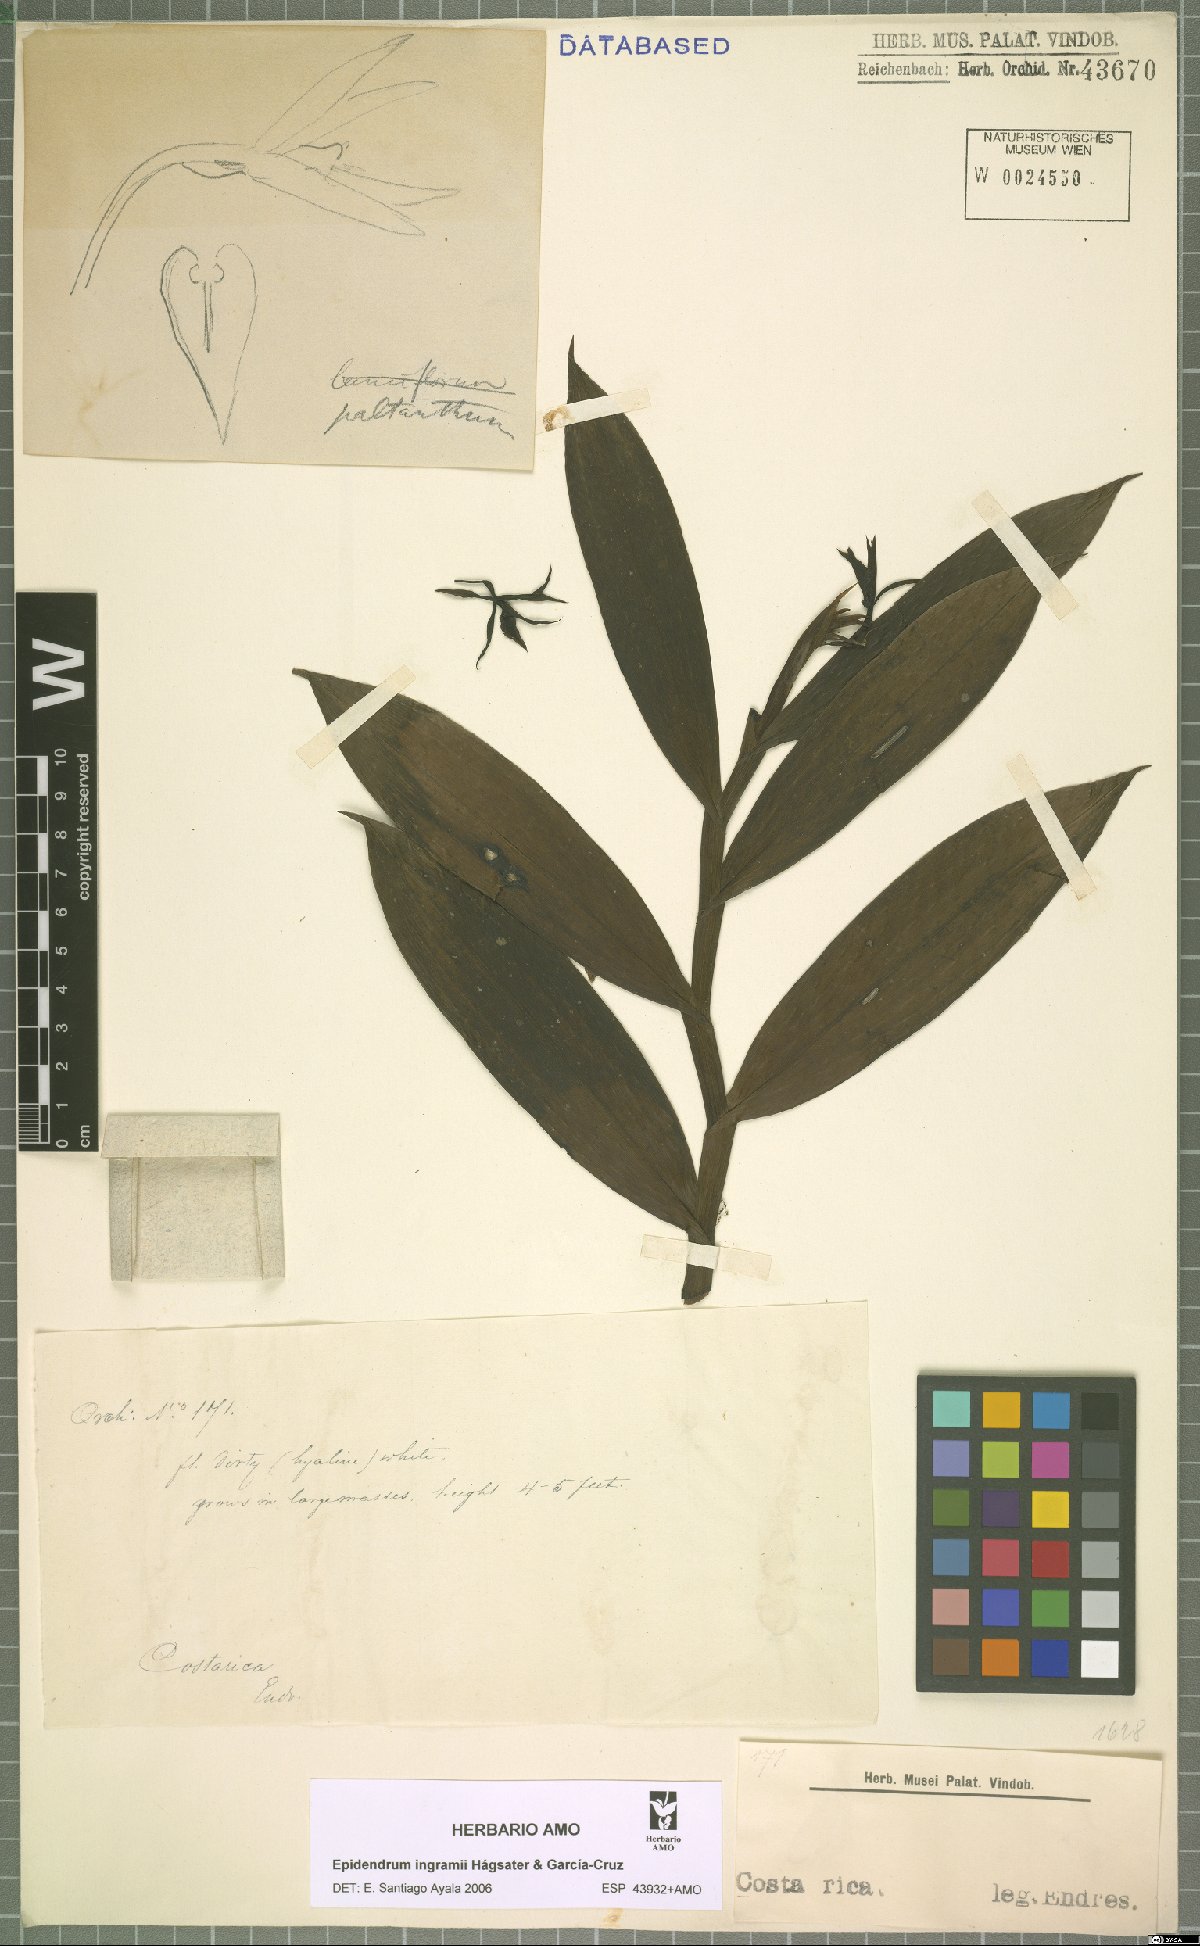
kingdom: Plantae
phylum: Tracheophyta
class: Liliopsida
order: Asparagales
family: Orchidaceae
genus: Epidendrum
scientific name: Epidendrum ingramii
